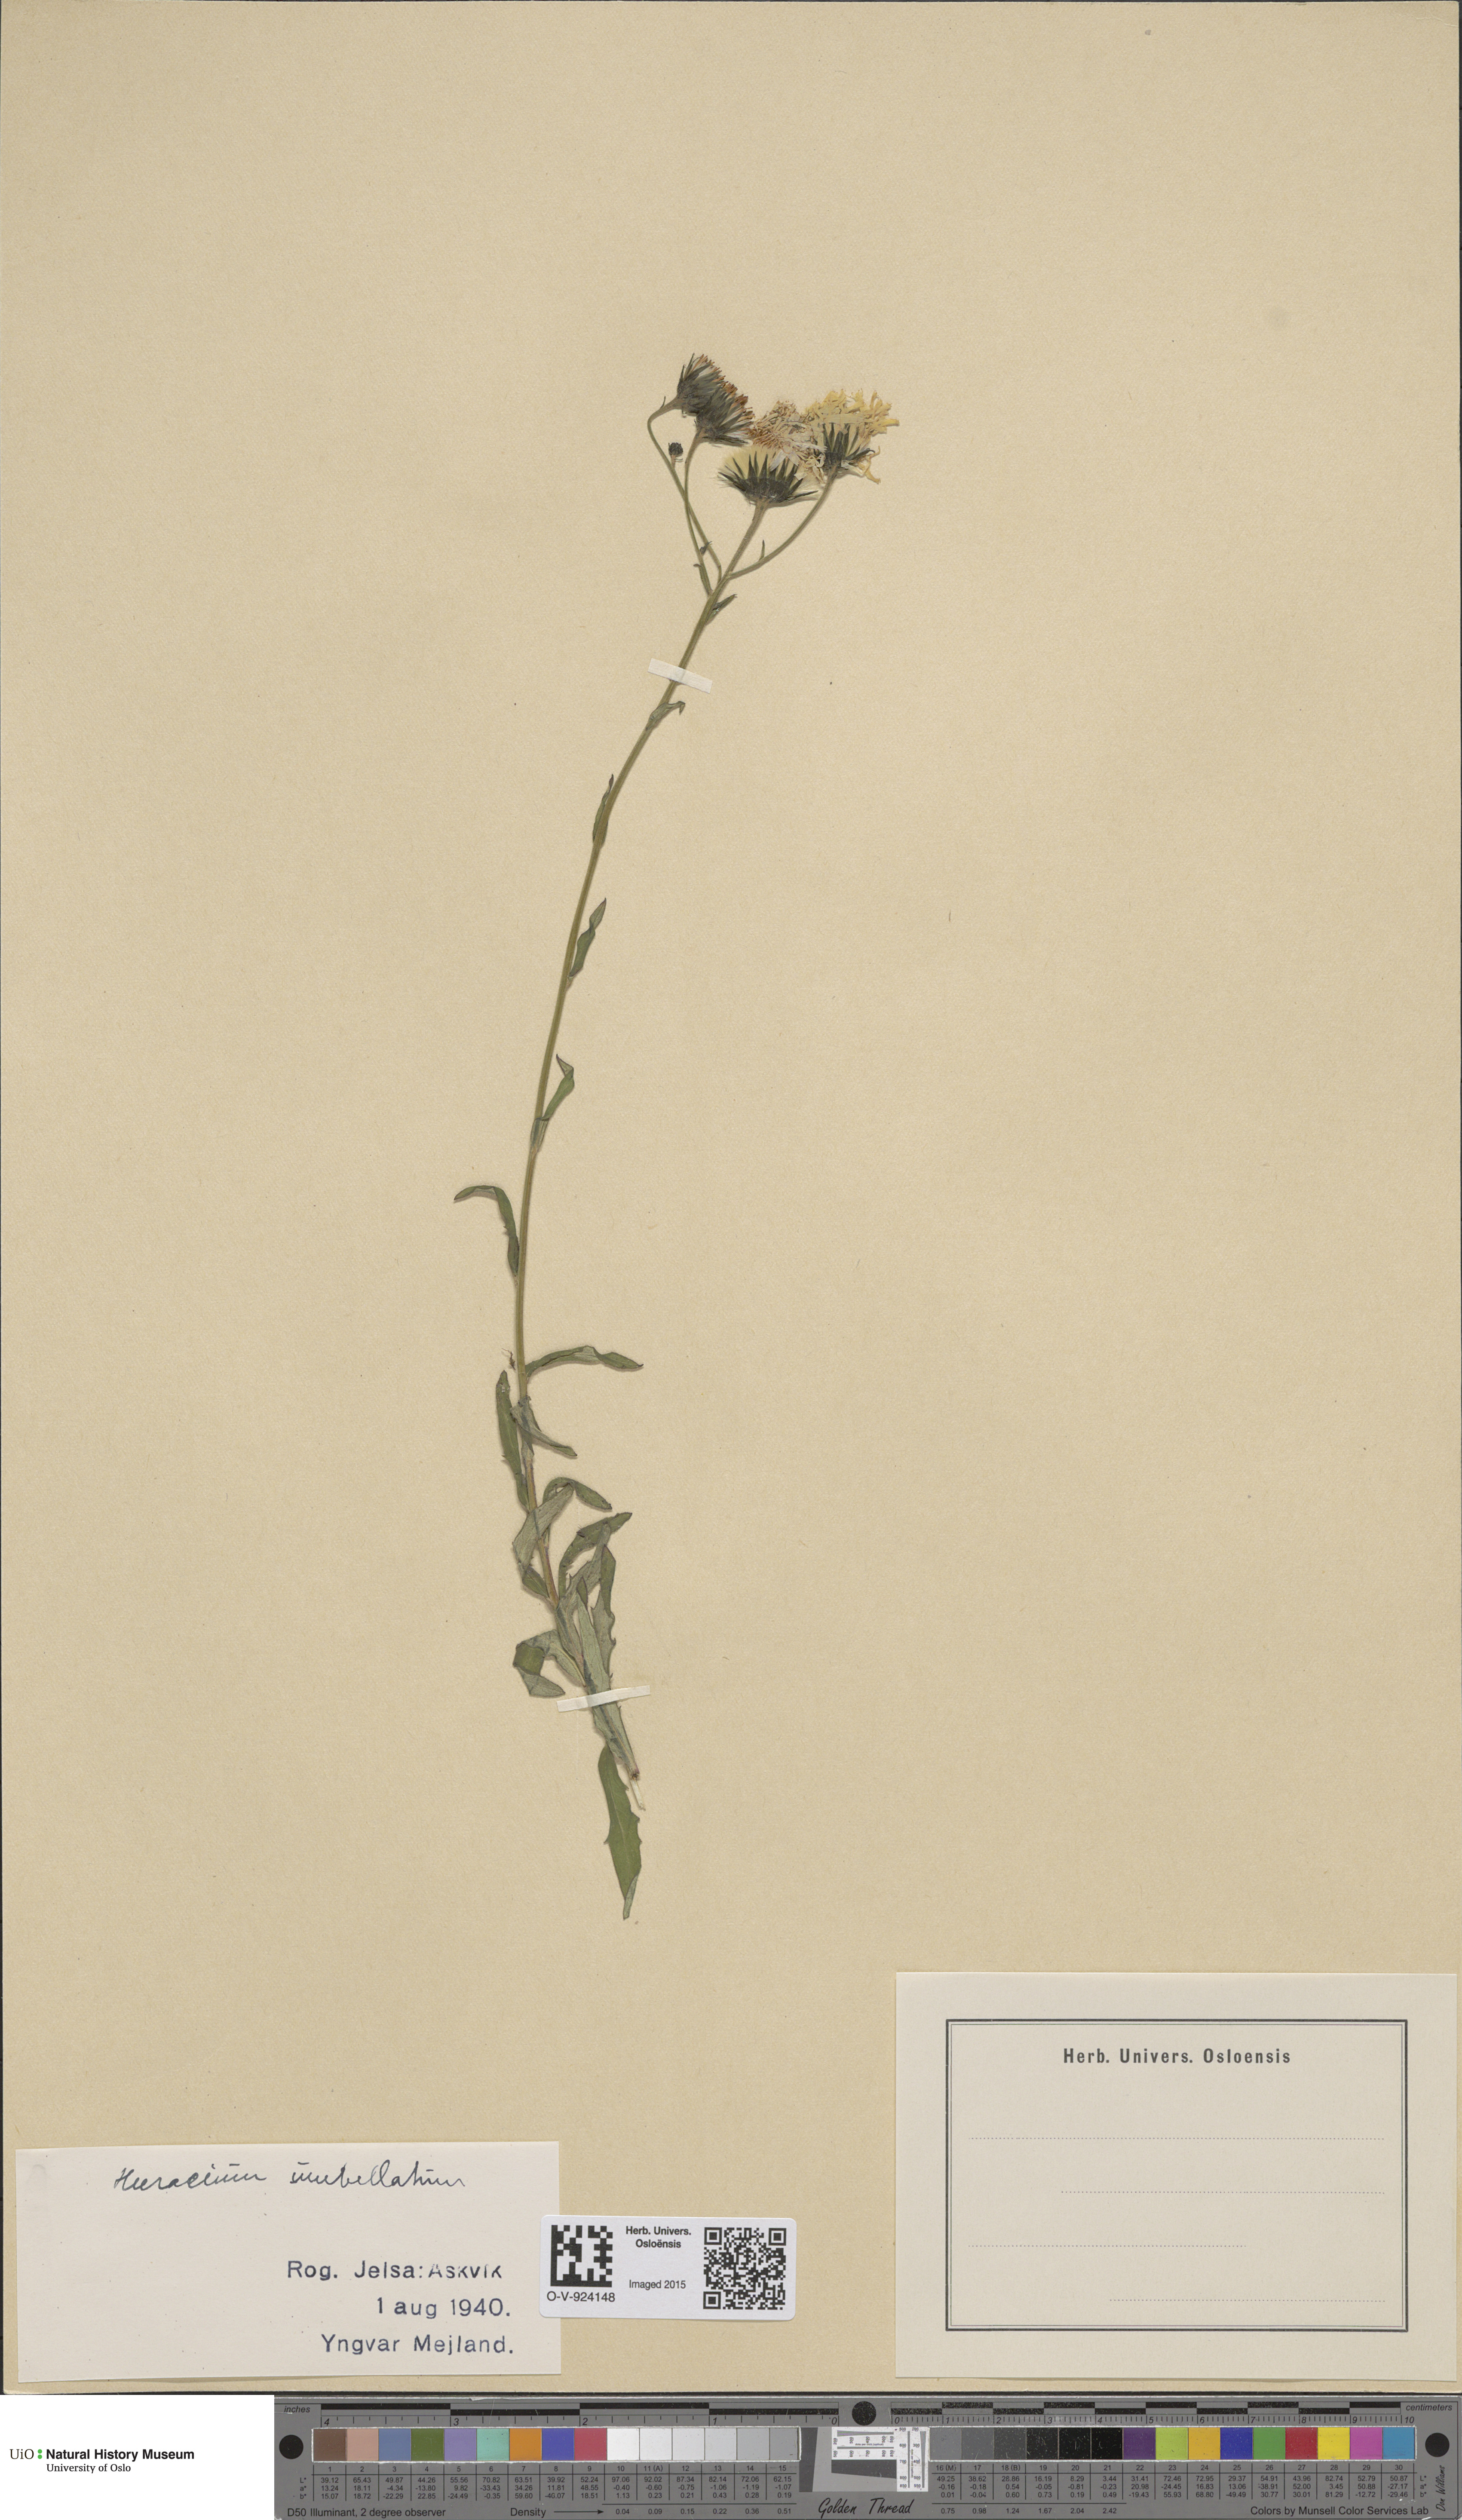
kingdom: Plantae
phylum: Tracheophyta
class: Magnoliopsida
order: Asterales
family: Asteraceae
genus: Hieracium
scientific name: Hieracium umbellatum
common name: Northern hawkweed
